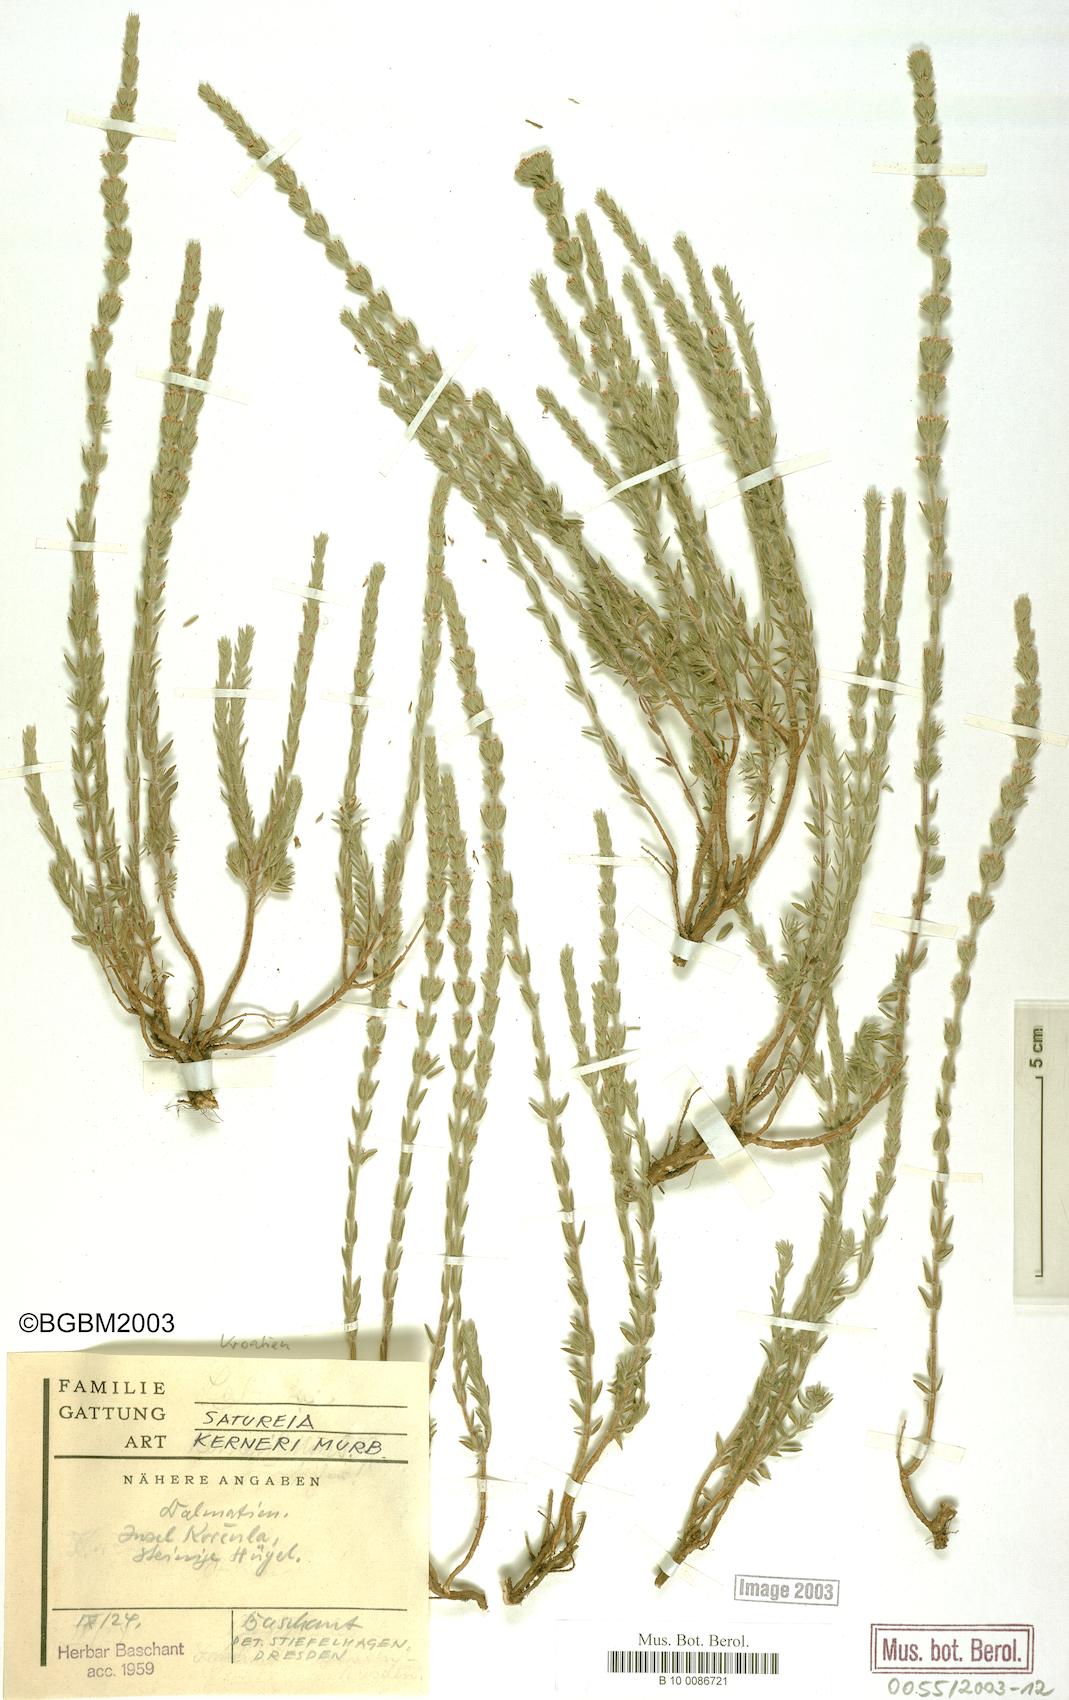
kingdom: Plantae
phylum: Tracheophyta
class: Magnoliopsida
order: Lamiales
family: Lamiaceae
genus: Micromeria
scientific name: Micromeria kerneri
